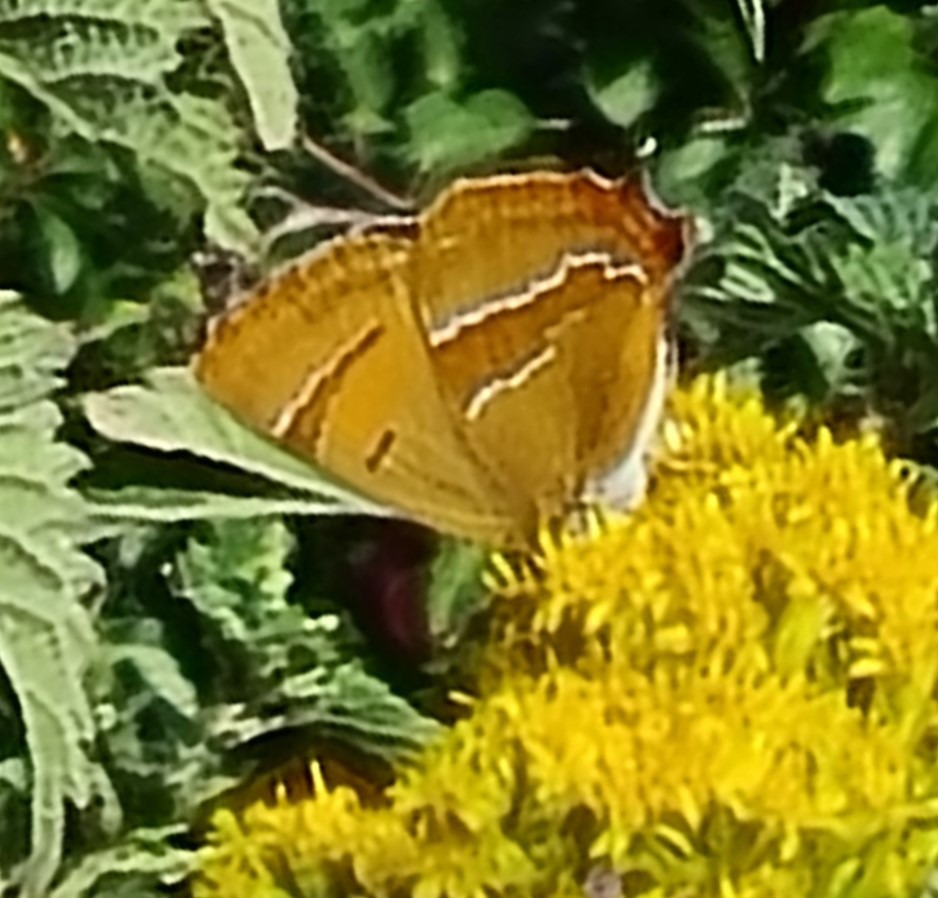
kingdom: Animalia
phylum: Arthropoda
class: Insecta
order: Lepidoptera
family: Lycaenidae
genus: Thecla
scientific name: Thecla betulae
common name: Guldhale
